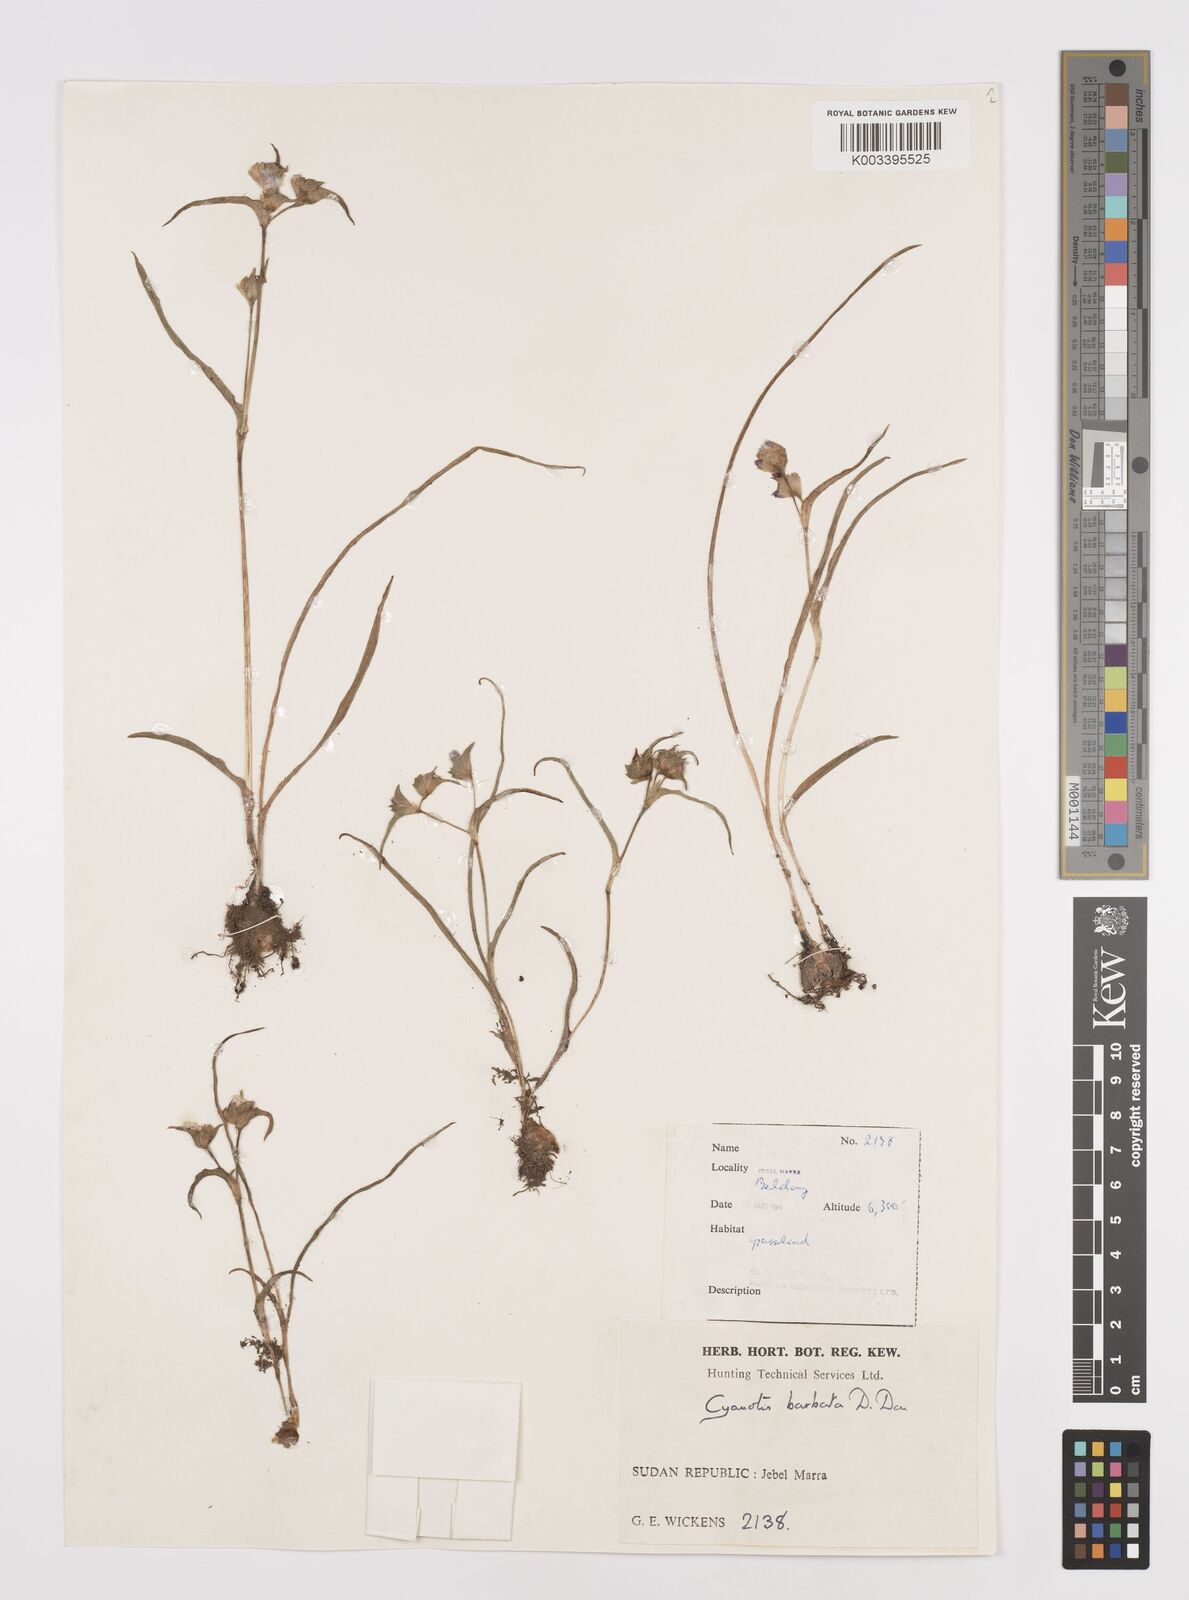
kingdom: Plantae
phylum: Tracheophyta
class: Liliopsida
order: Commelinales
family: Commelinaceae
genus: Cyanotis
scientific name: Cyanotis vaga
